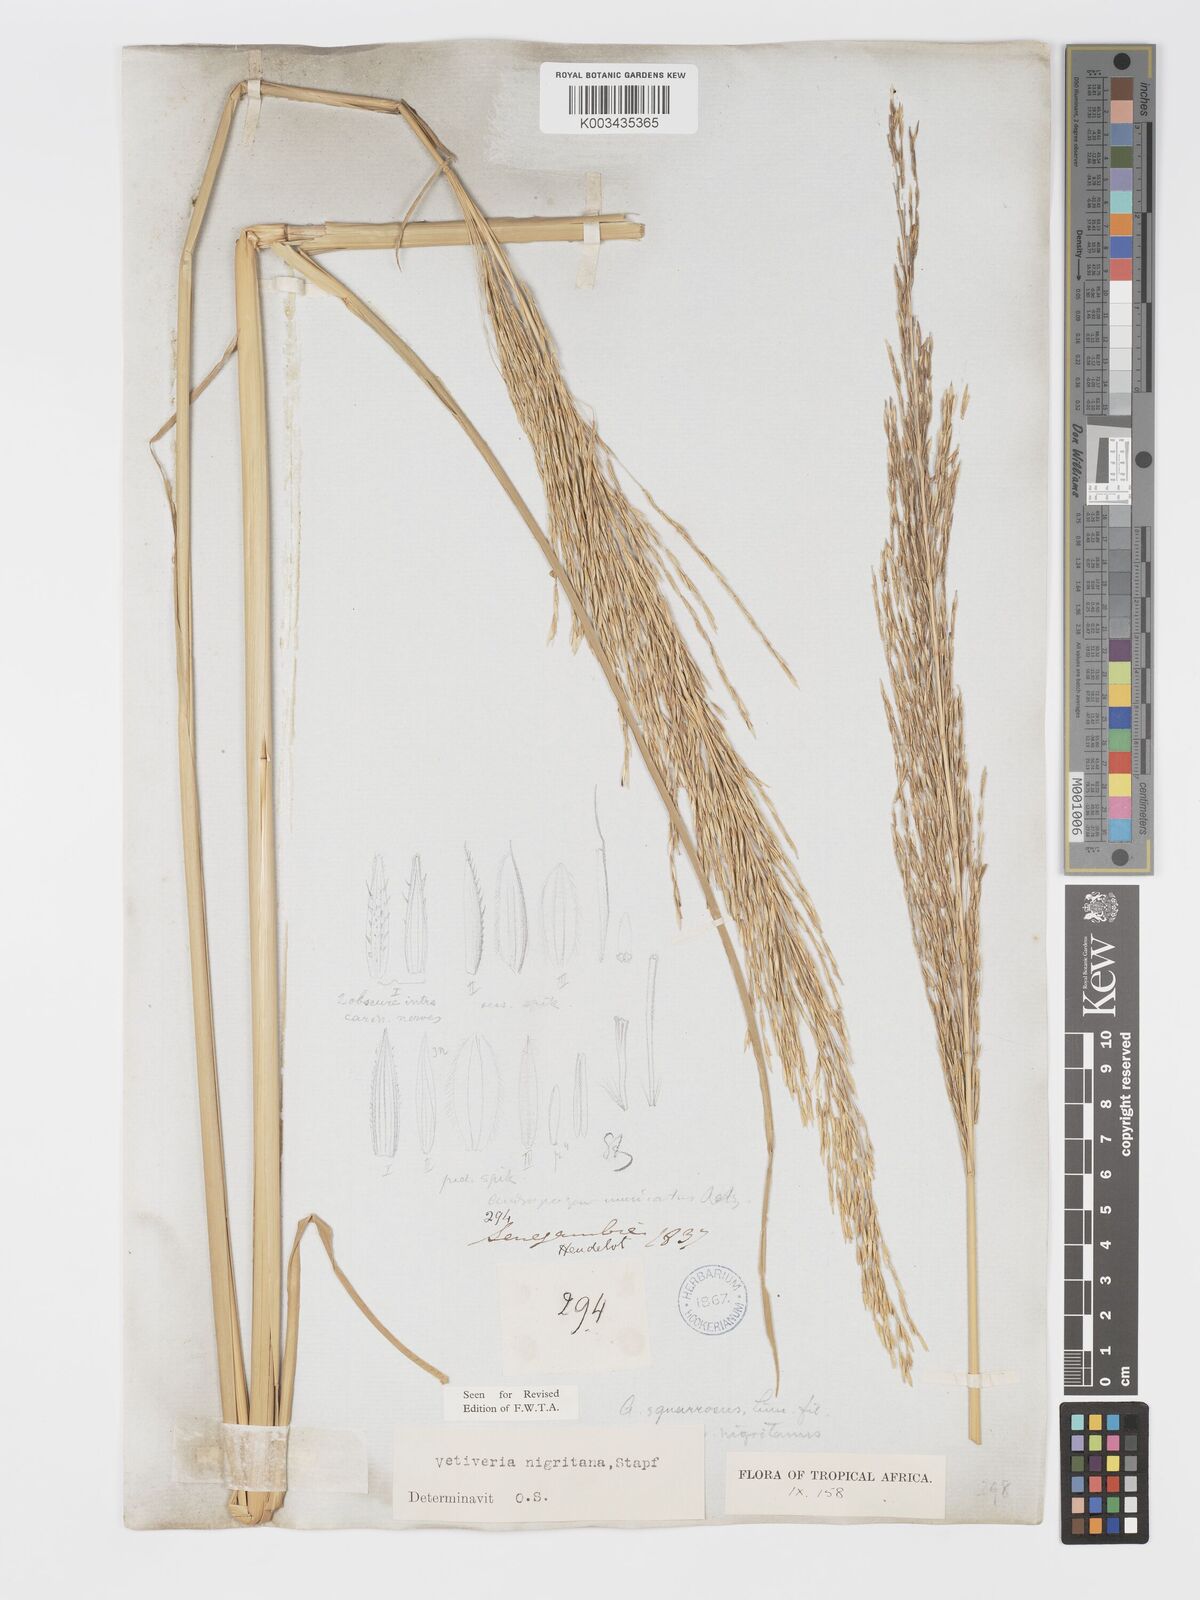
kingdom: Plantae
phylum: Tracheophyta
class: Liliopsida
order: Poales
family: Poaceae
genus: Chrysopogon
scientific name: Chrysopogon nigritanus
